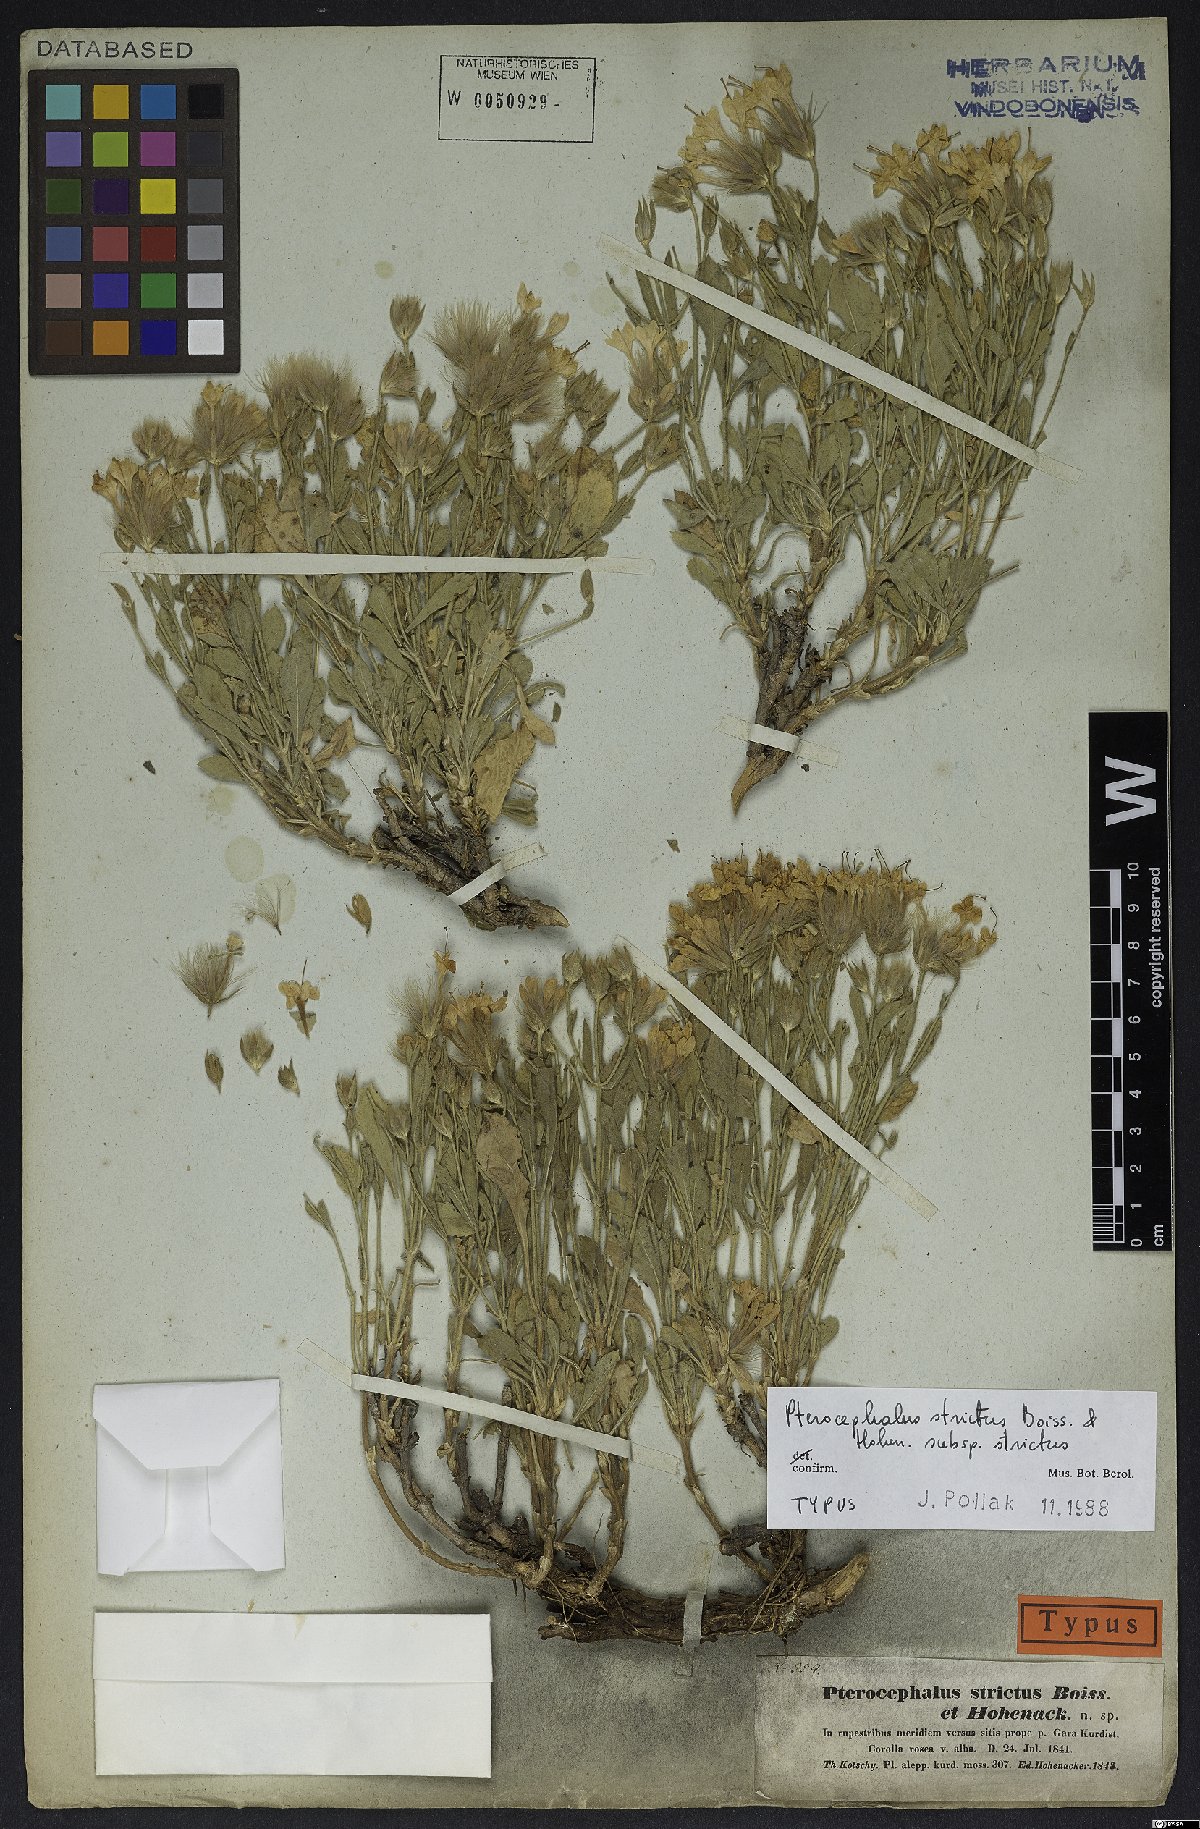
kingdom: Plantae
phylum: Tracheophyta
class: Magnoliopsida
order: Dipsacales
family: Caprifoliaceae
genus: Pterocephalus
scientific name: Pterocephalus strictus
